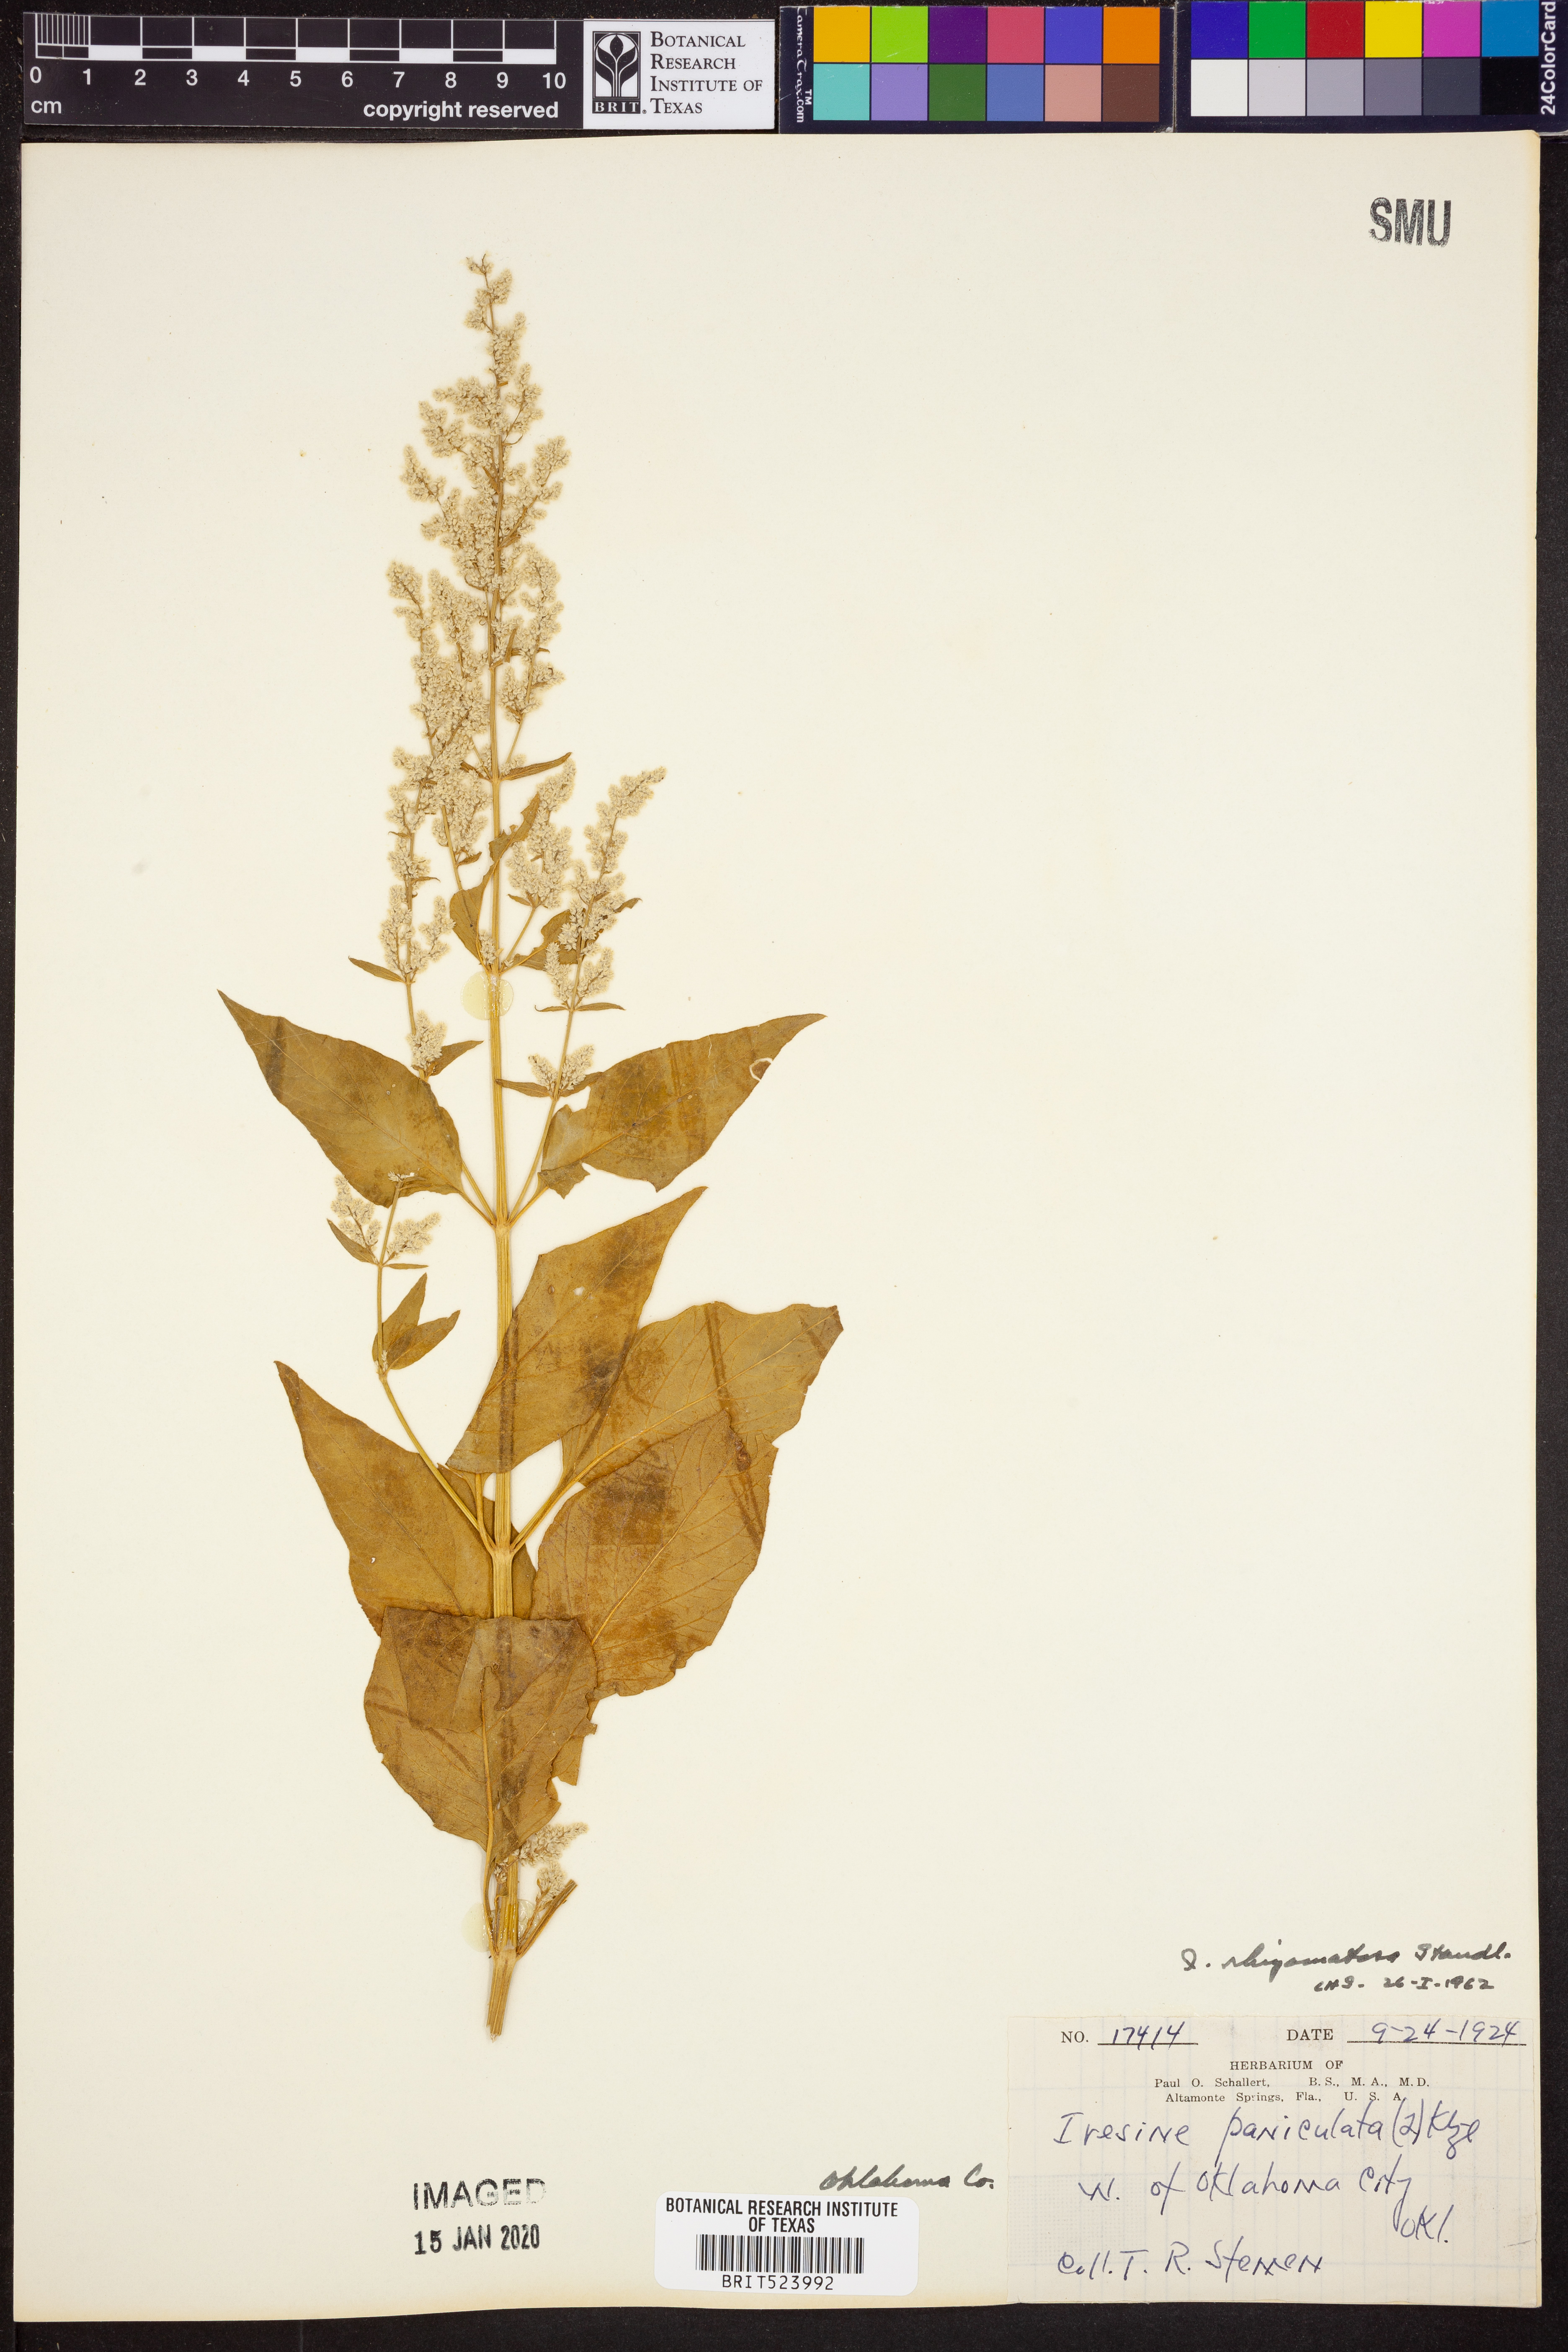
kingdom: Plantae
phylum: Tracheophyta
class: Magnoliopsida
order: Caryophyllales
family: Amaranthaceae
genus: Iresine
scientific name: Iresine rhizomatosa
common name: Juda's-bush
